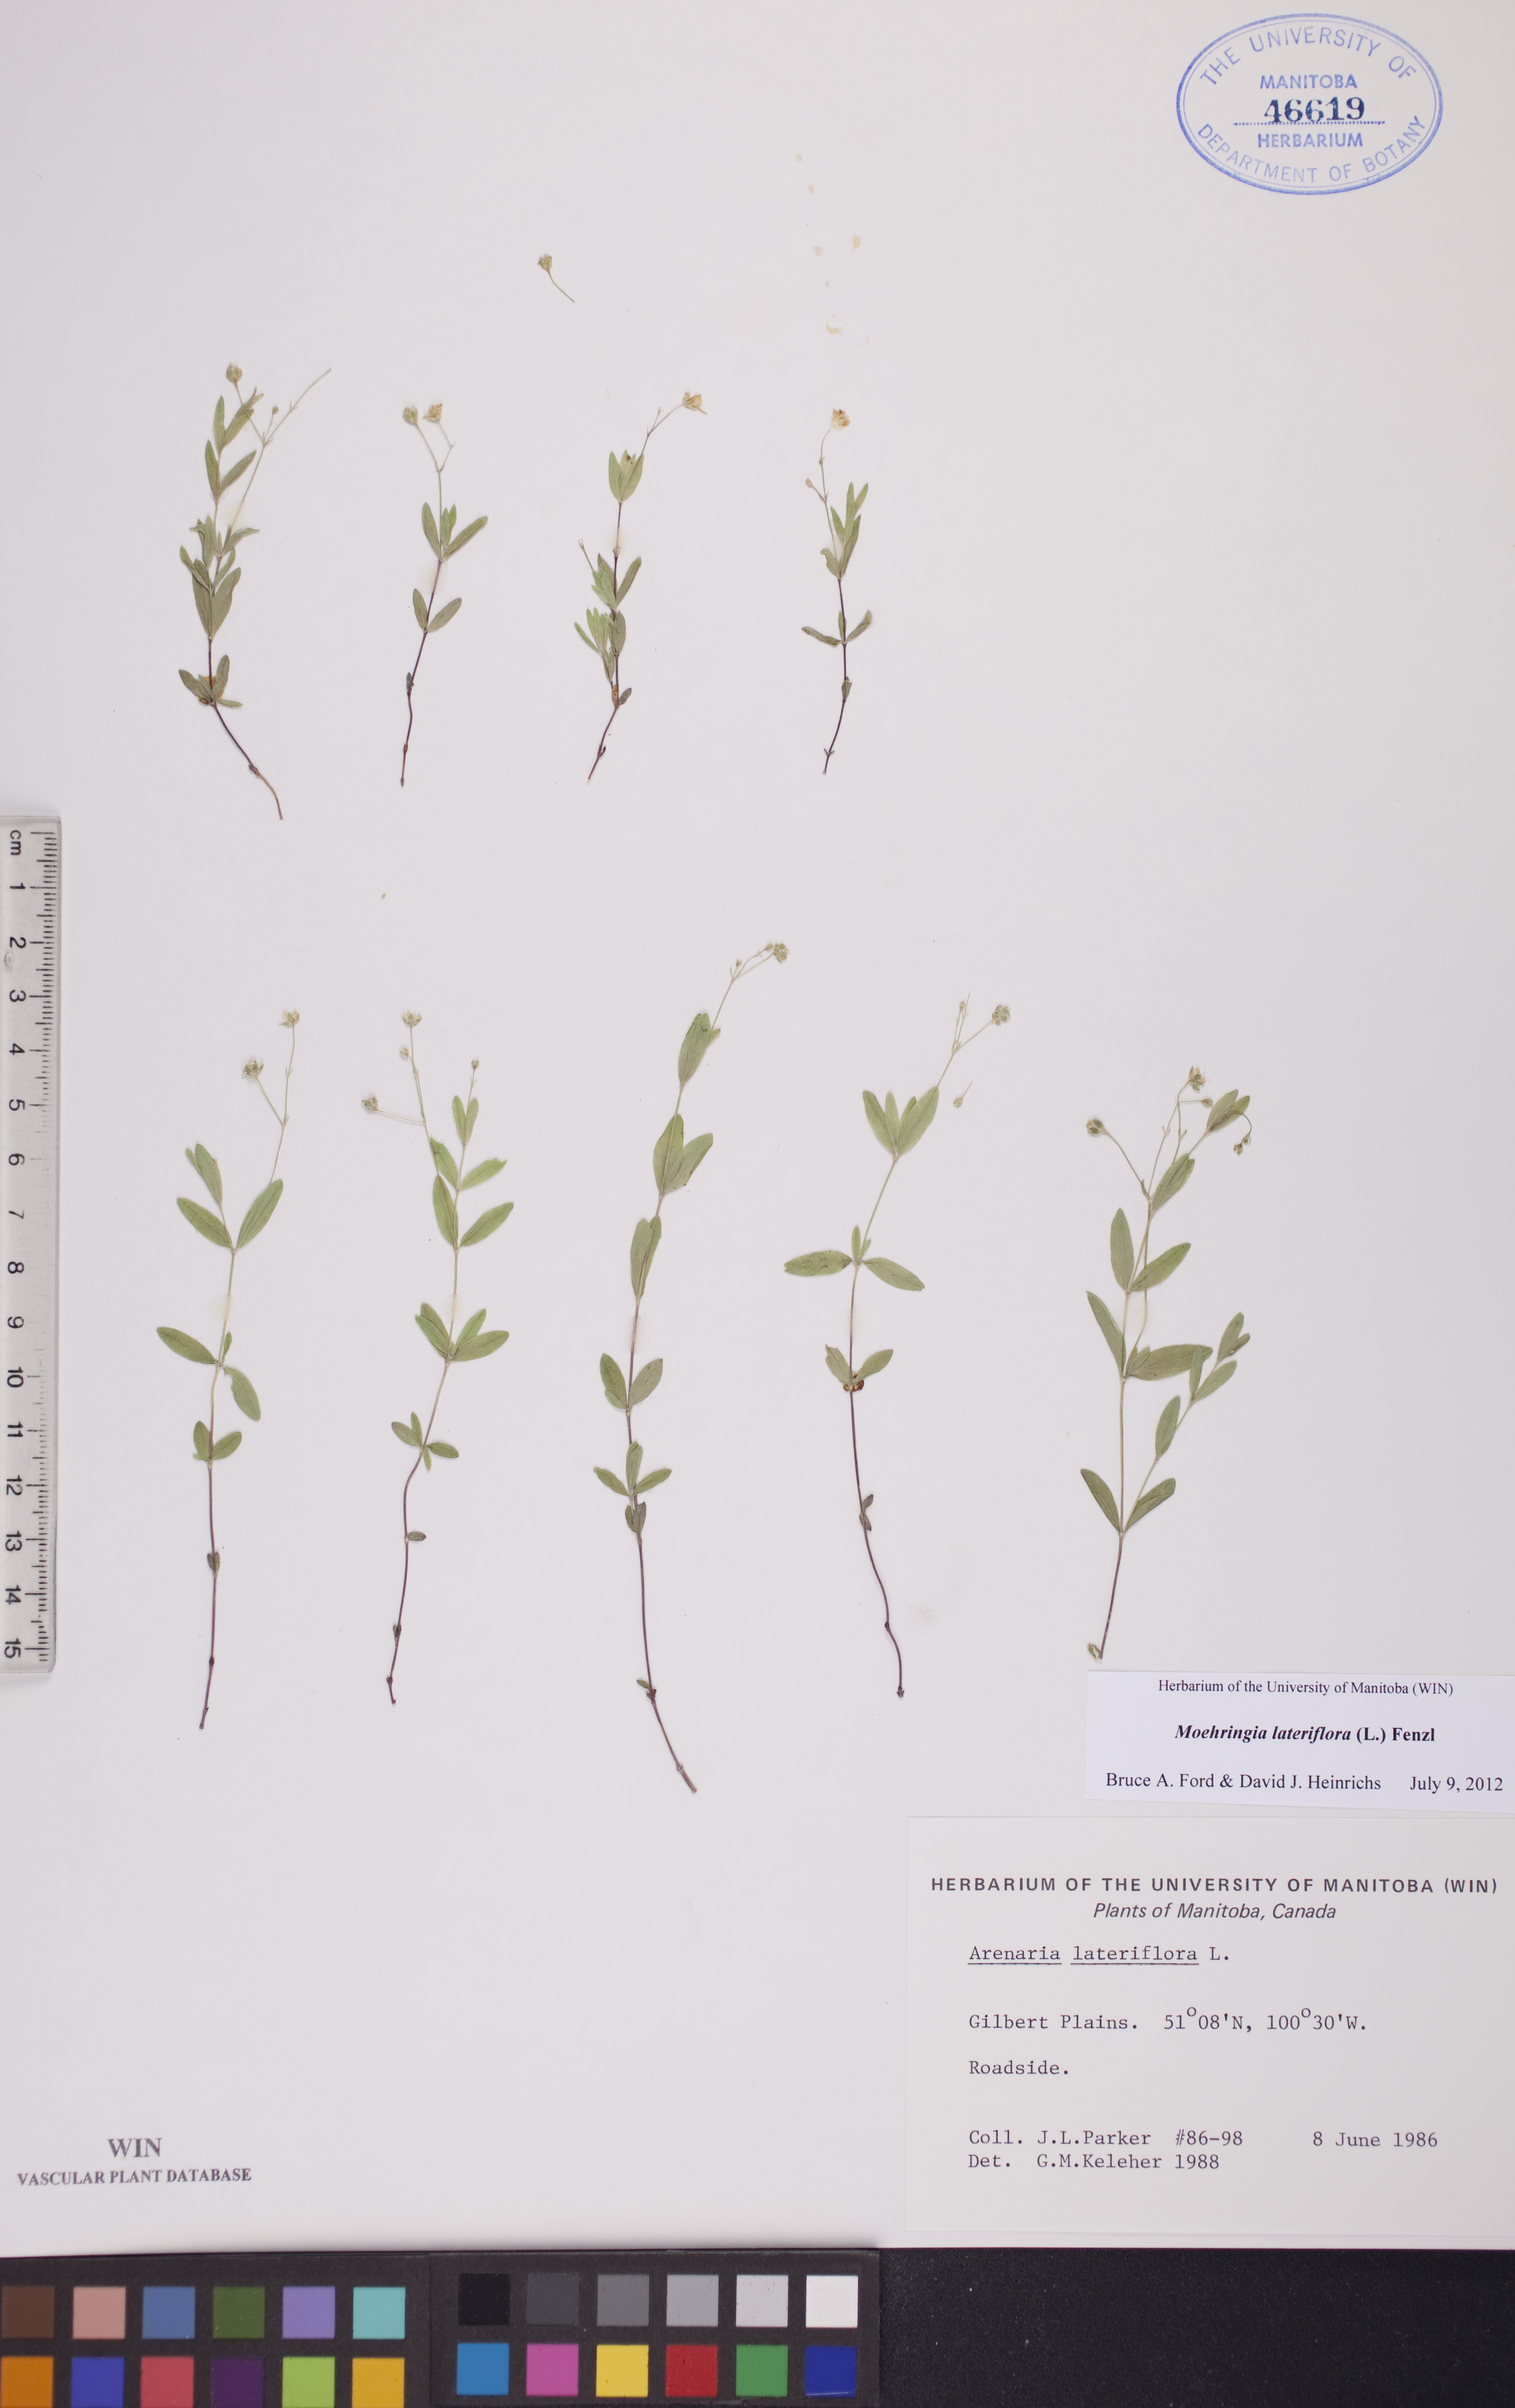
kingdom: Plantae
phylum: Tracheophyta
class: Magnoliopsida
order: Caryophyllales
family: Caryophyllaceae
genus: Moehringia
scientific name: Moehringia lateriflora
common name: Blunt-leaved sandwort
